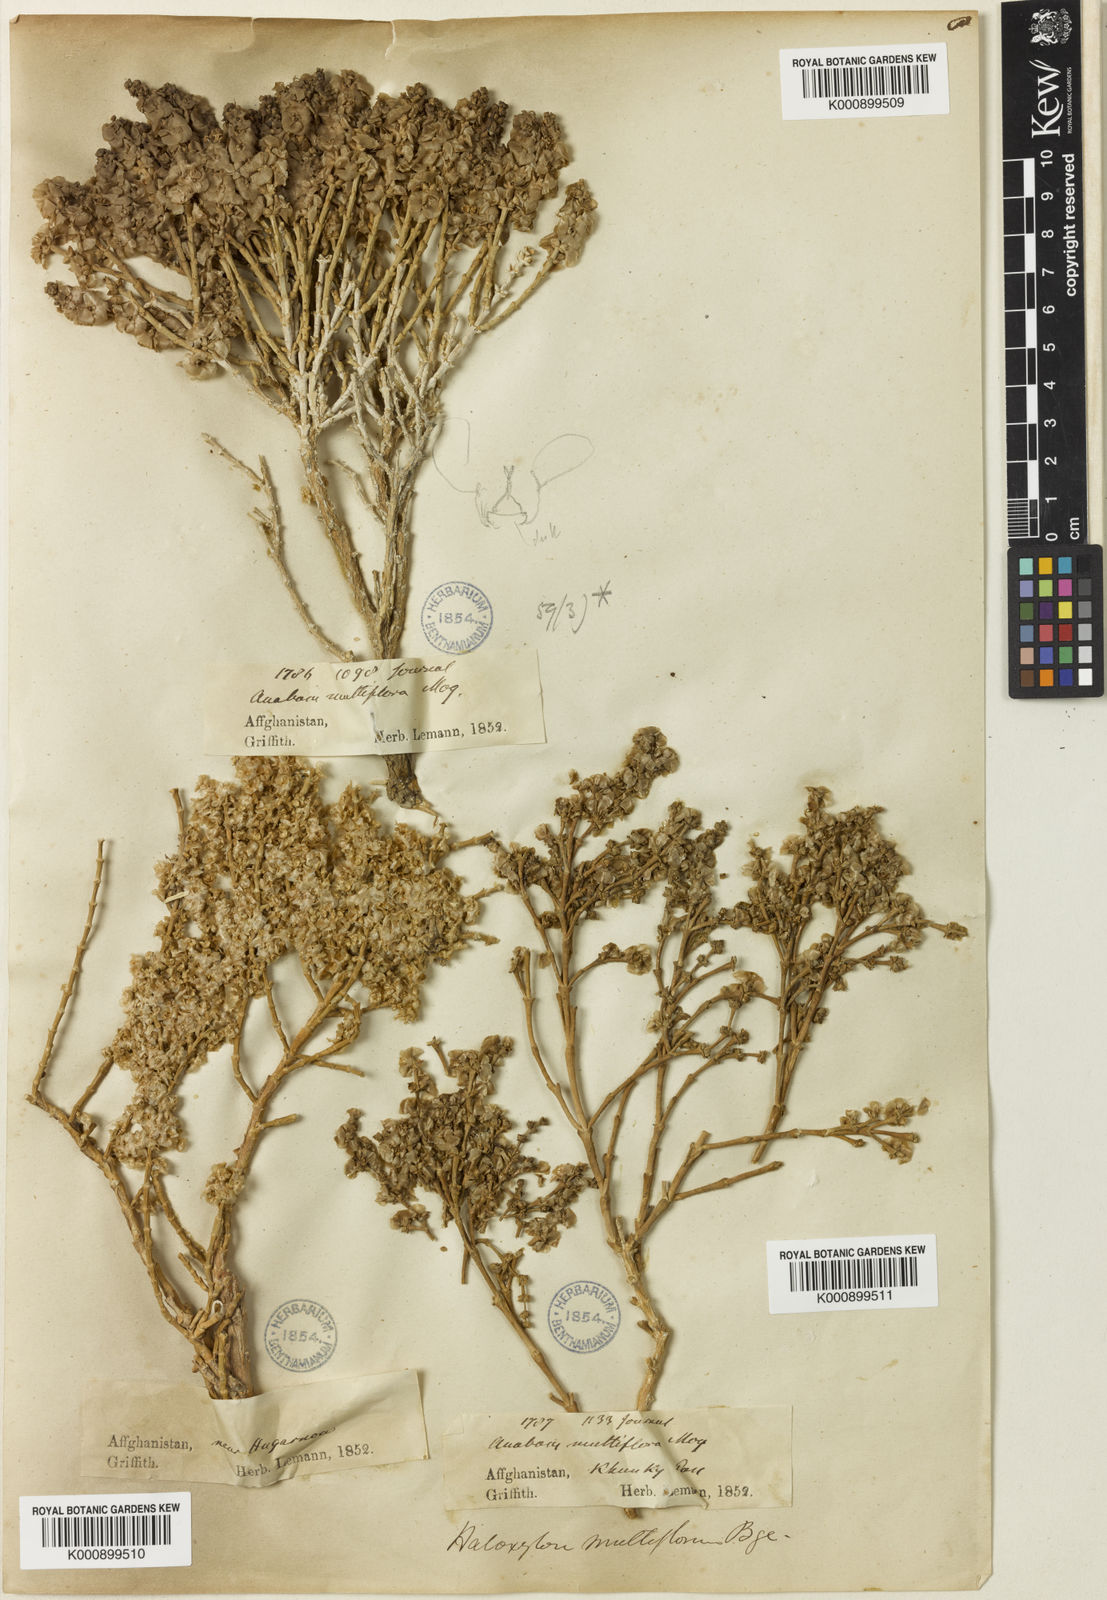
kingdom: Plantae
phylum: Tracheophyta
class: Magnoliopsida
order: Caryophyllales
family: Amaranthaceae
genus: Haloxylon
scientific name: Haloxylon multiflorum
